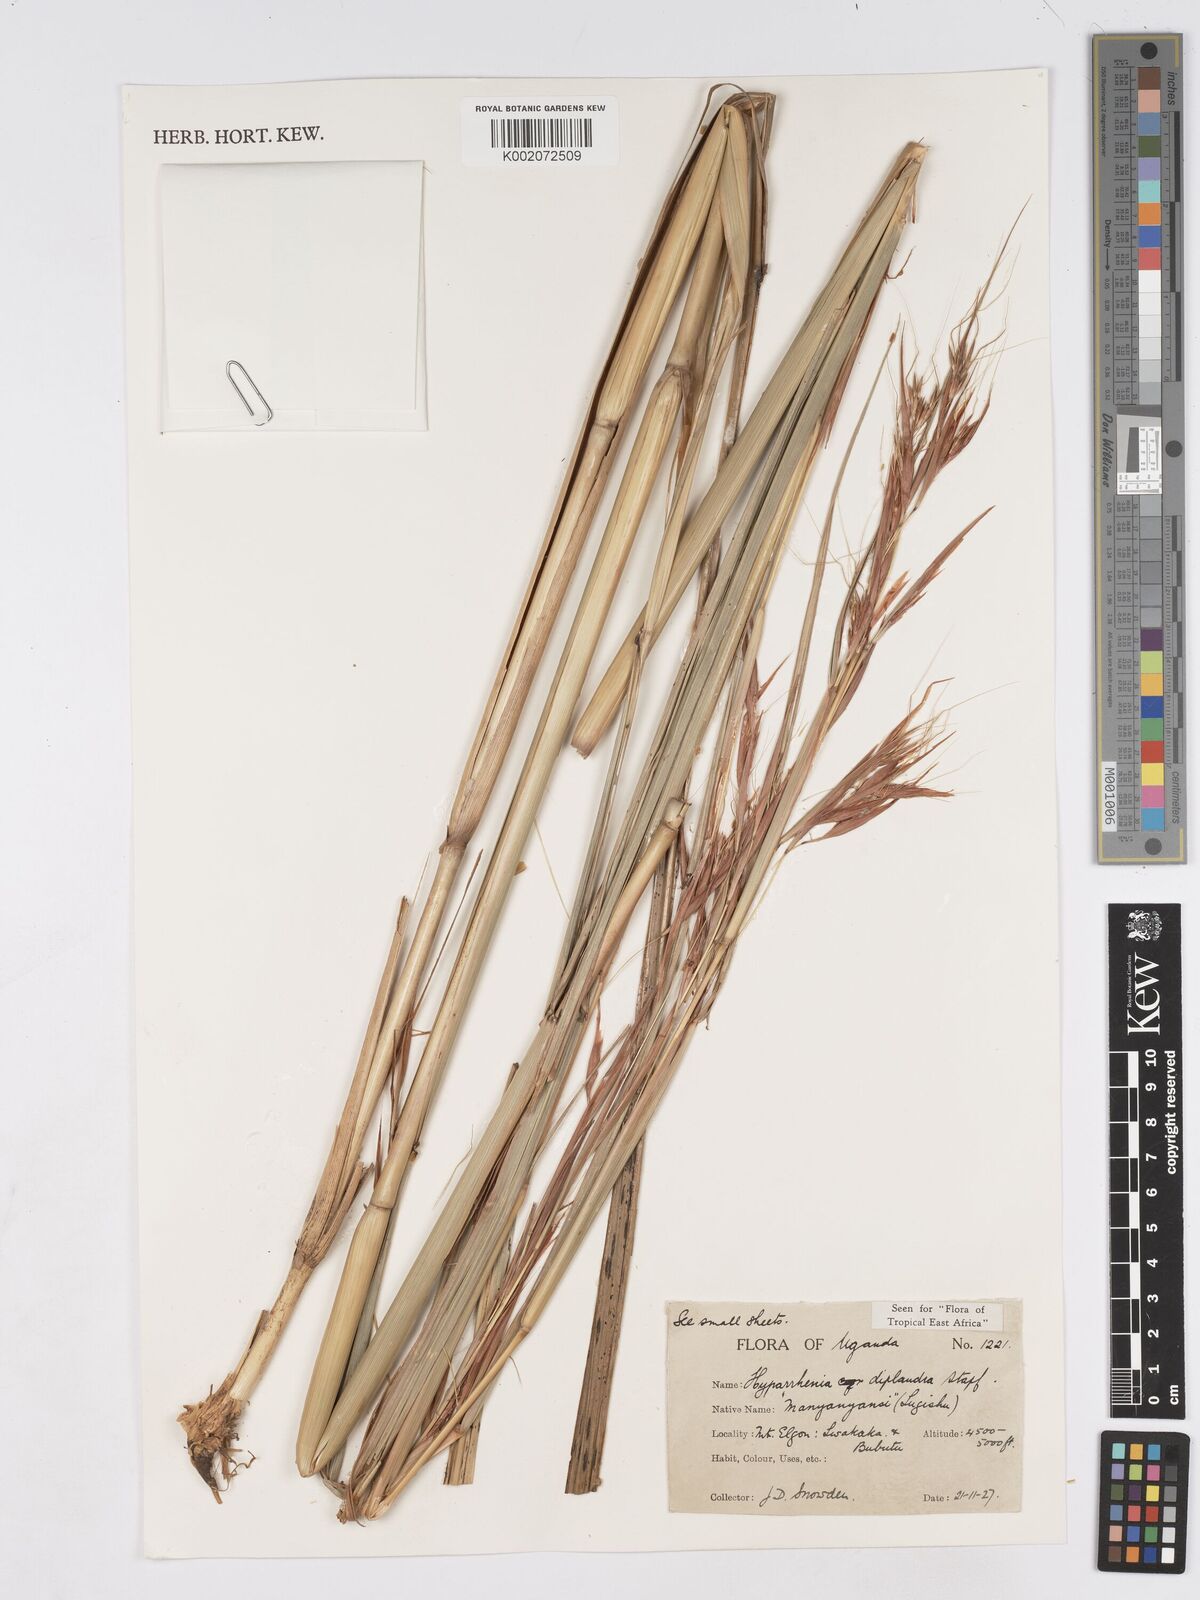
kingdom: Plantae
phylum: Tracheophyta
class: Liliopsida
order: Poales
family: Poaceae
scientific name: Poaceae
